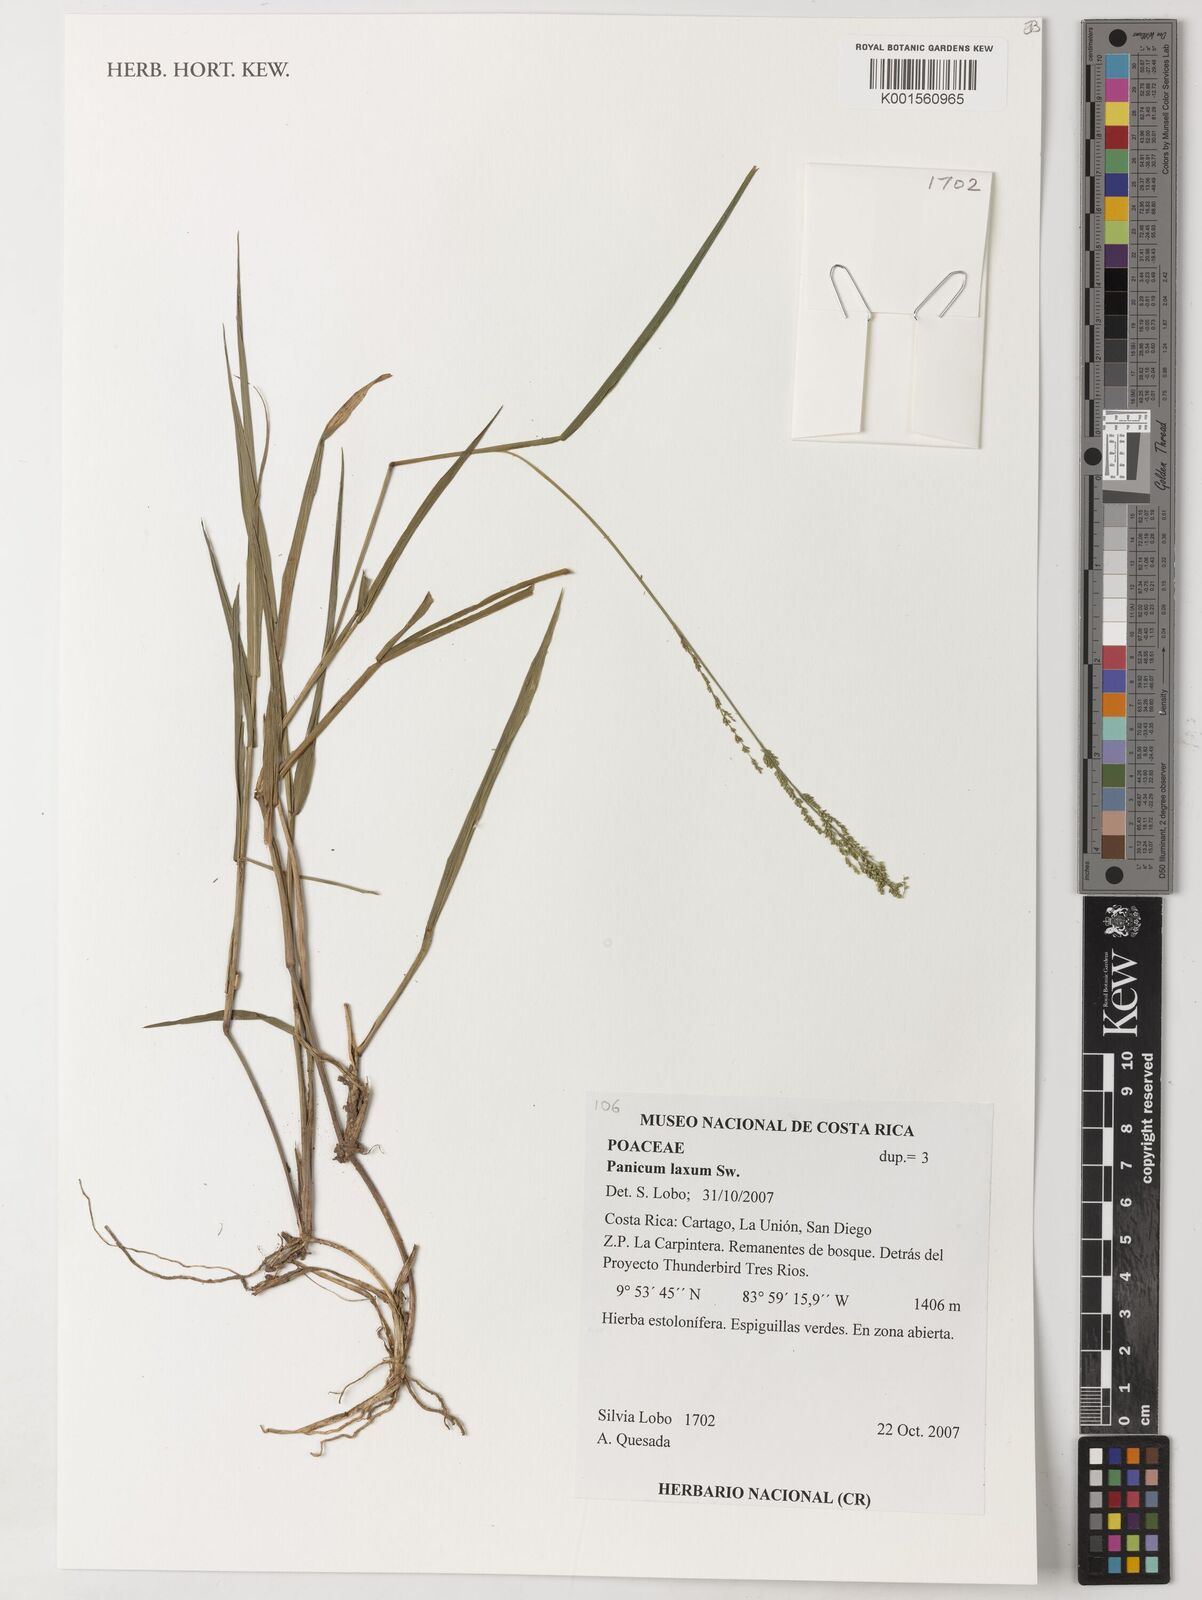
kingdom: Plantae
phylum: Tracheophyta
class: Liliopsida
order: Poales
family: Poaceae
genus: Steinchisma
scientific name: Steinchisma laxum
